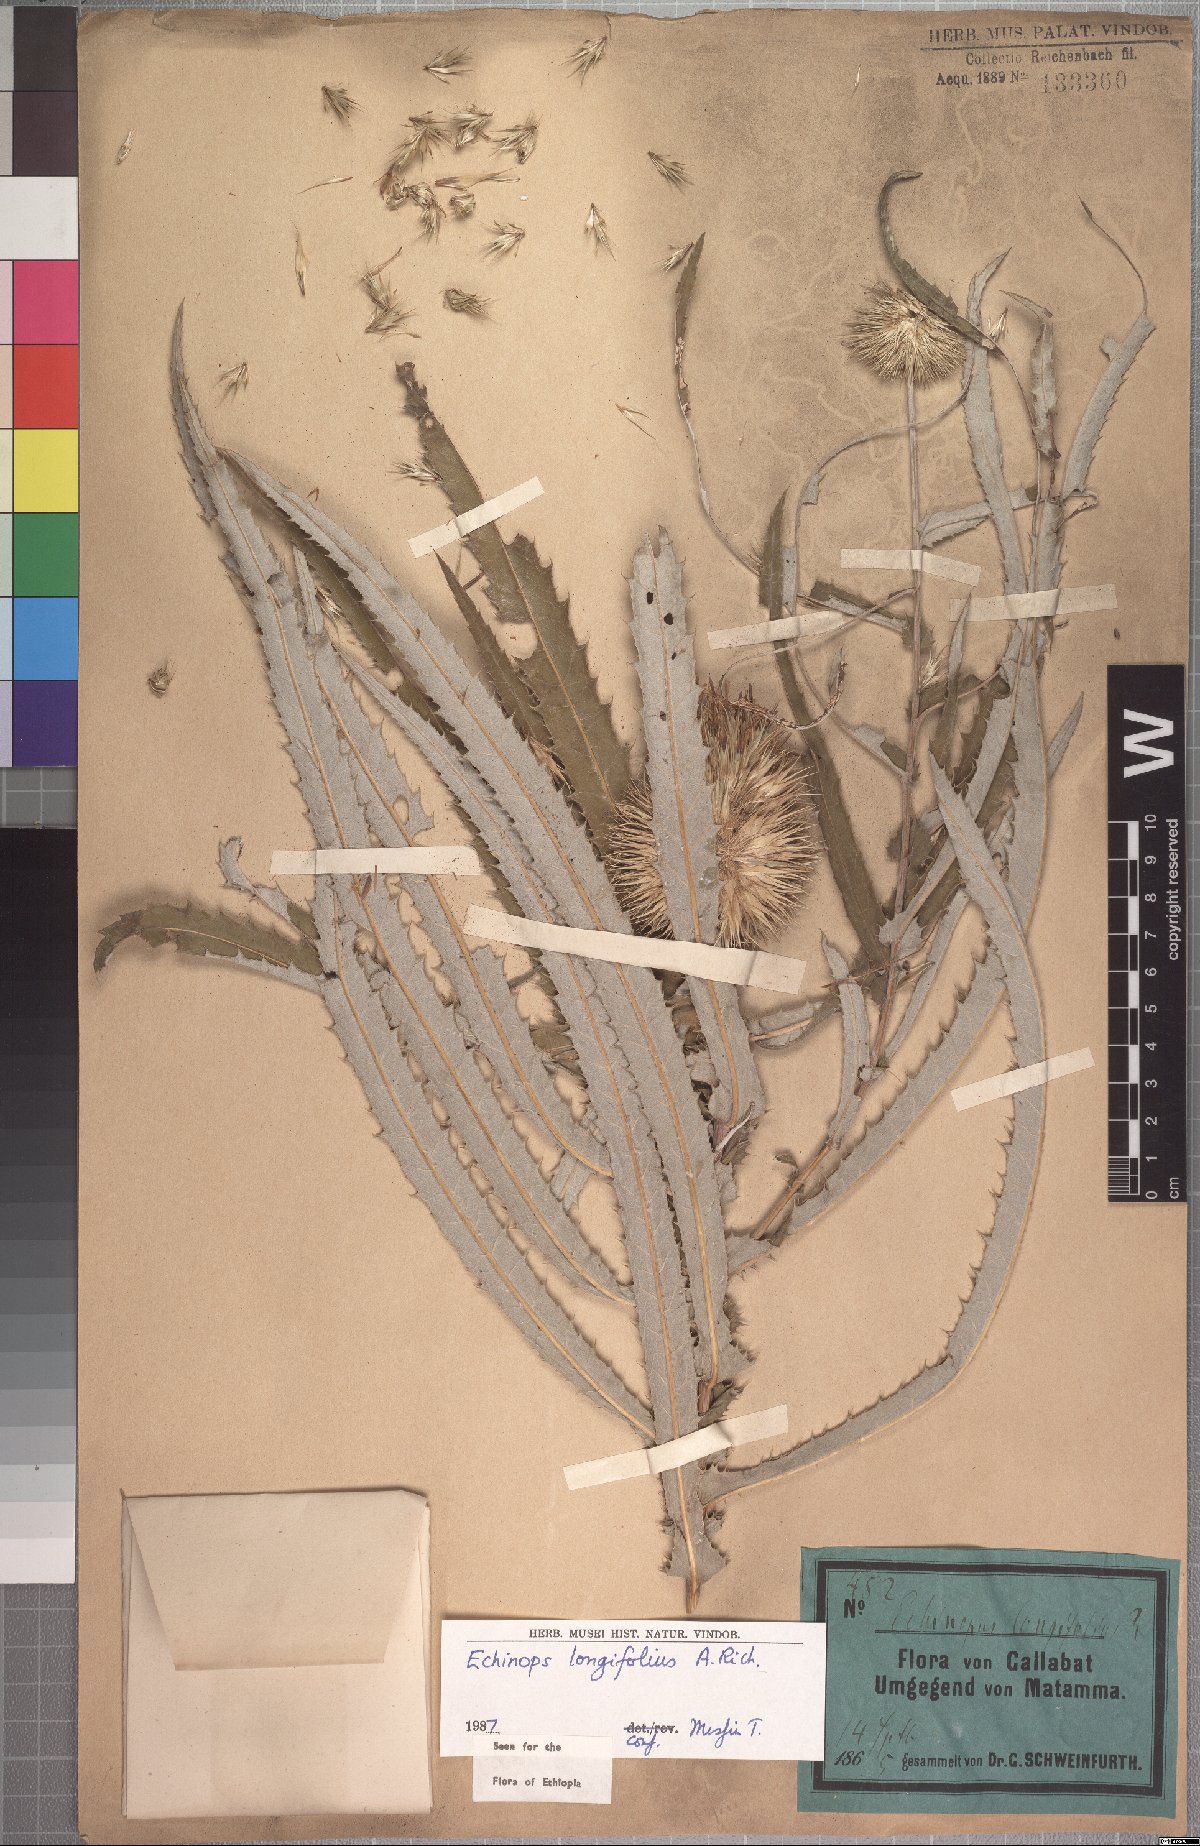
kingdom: Plantae
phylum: Tracheophyta
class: Magnoliopsida
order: Asterales
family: Asteraceae
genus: Echinops
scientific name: Echinops longifolius
